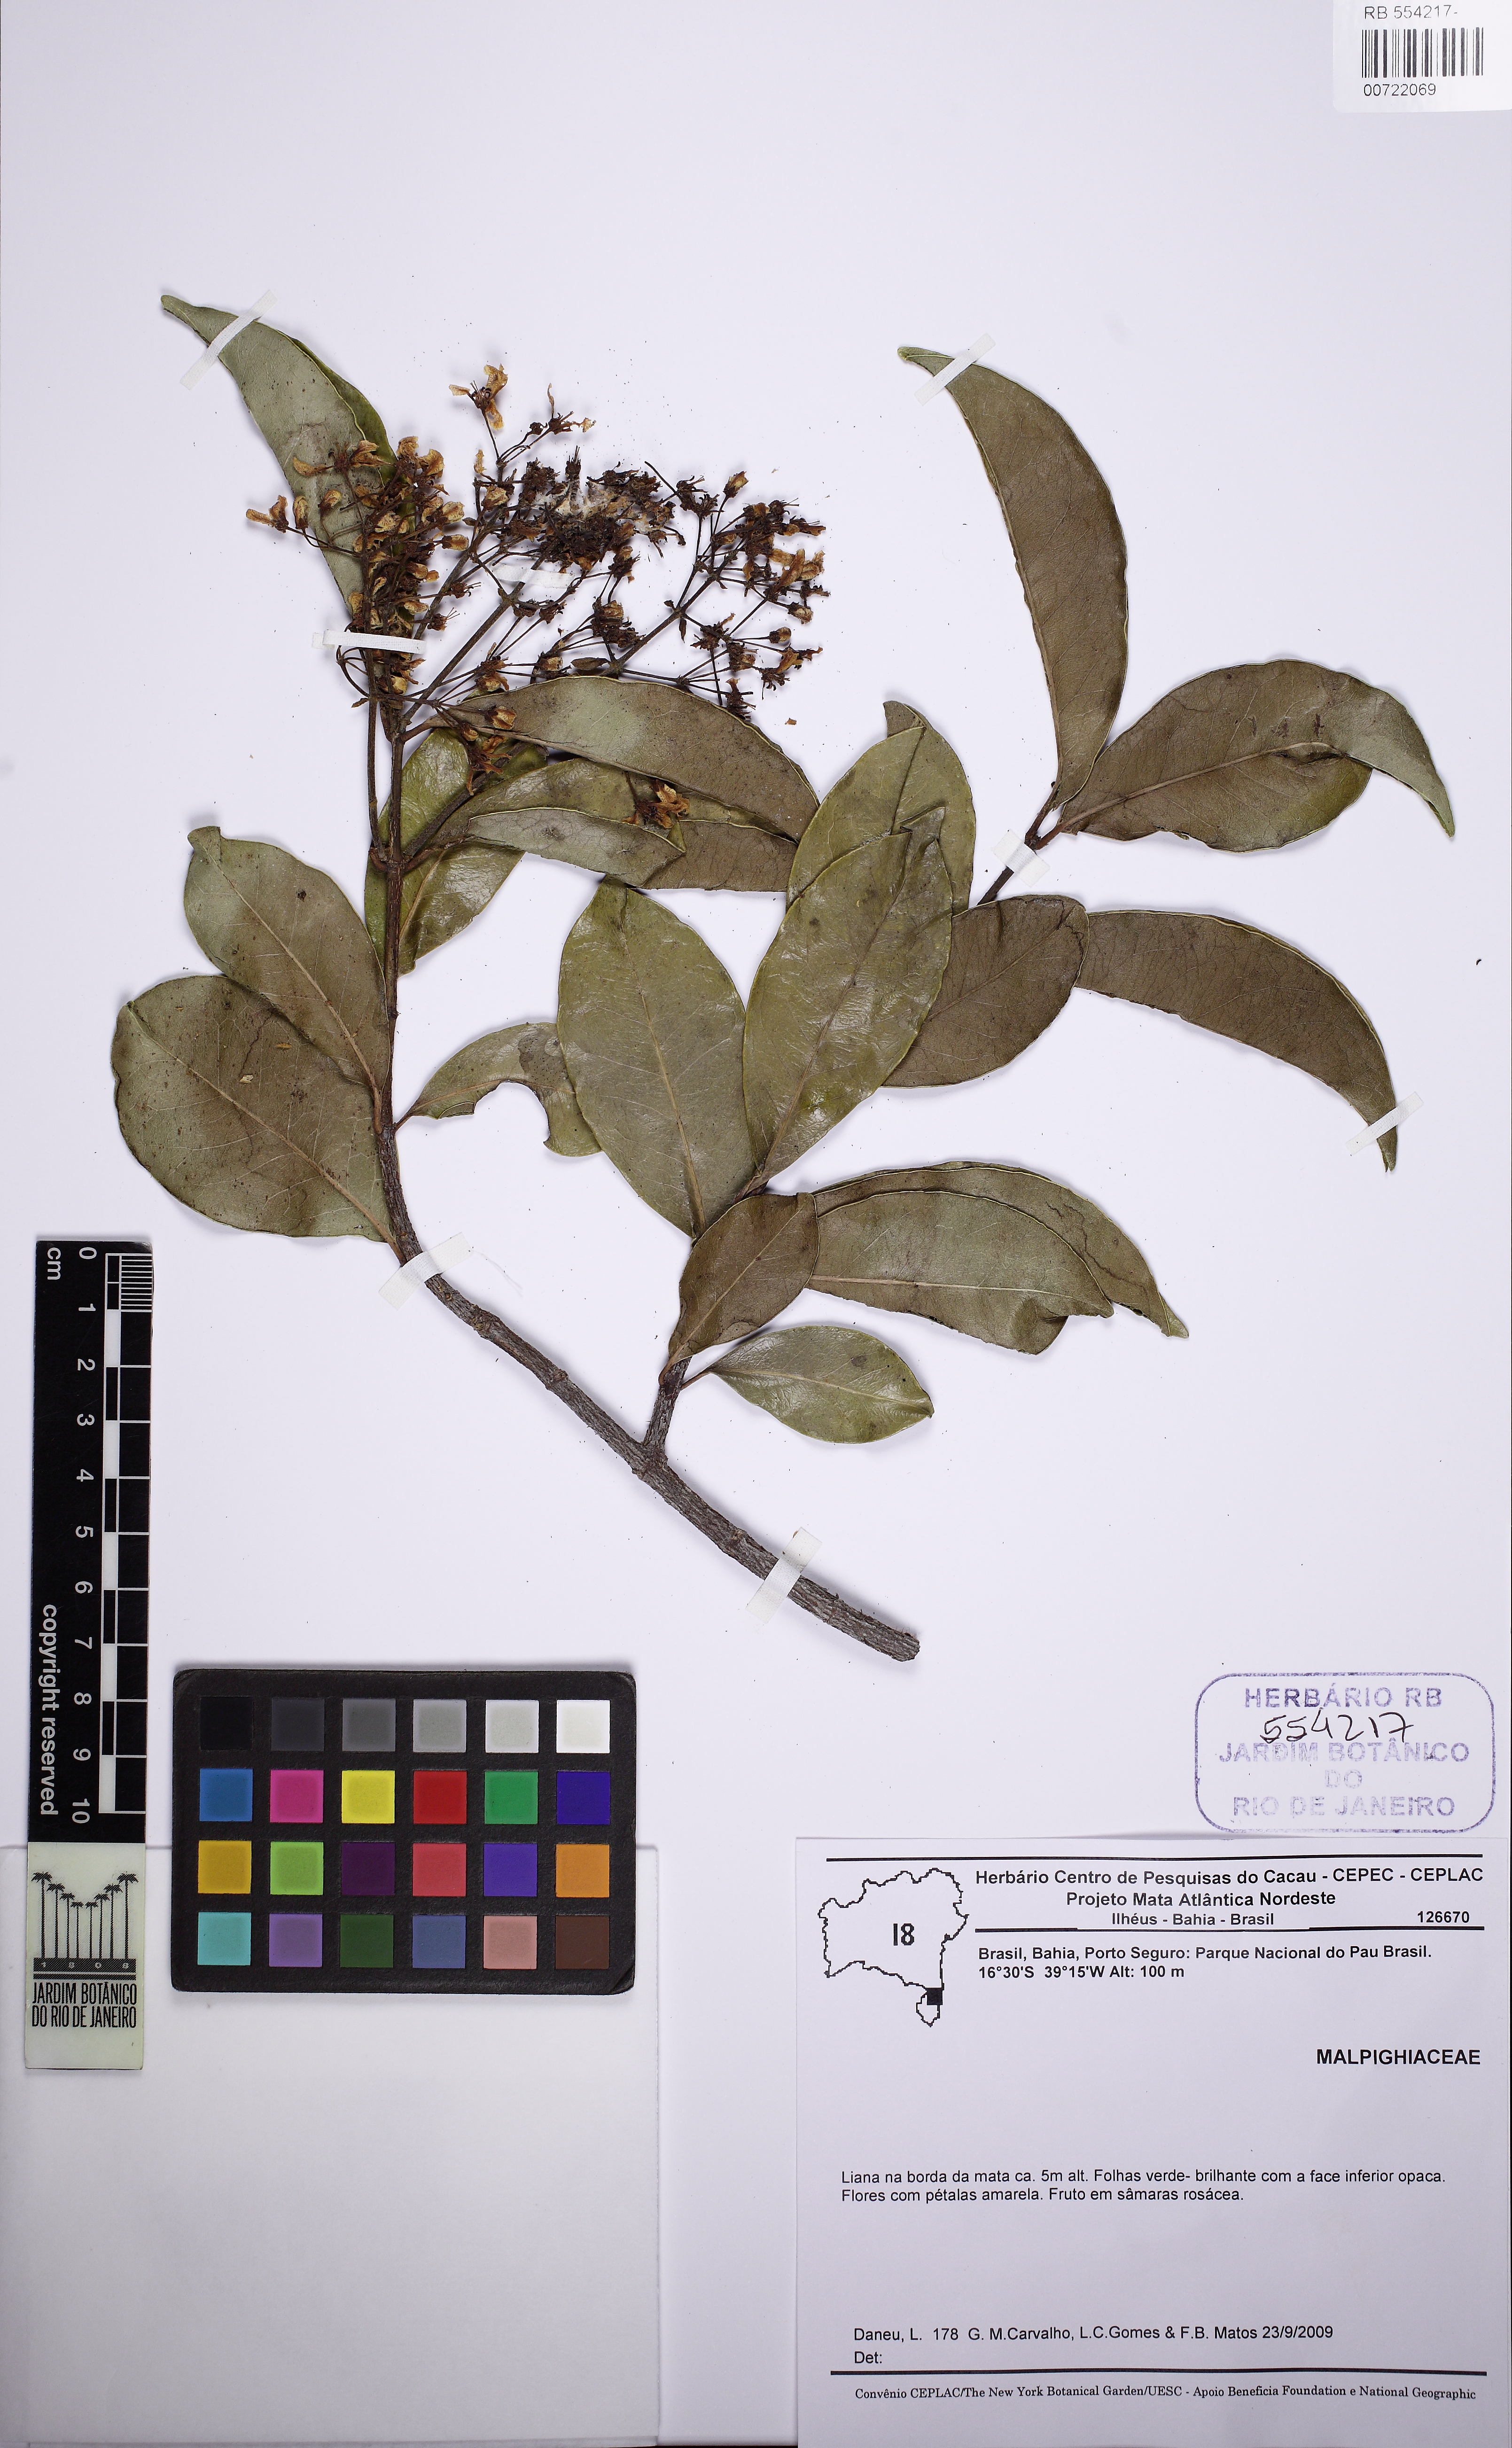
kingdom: Plantae
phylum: Tracheophyta
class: Magnoliopsida
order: Malpighiales
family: Malpighiaceae
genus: Tetrapterys
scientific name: Tetrapterys mucronata
